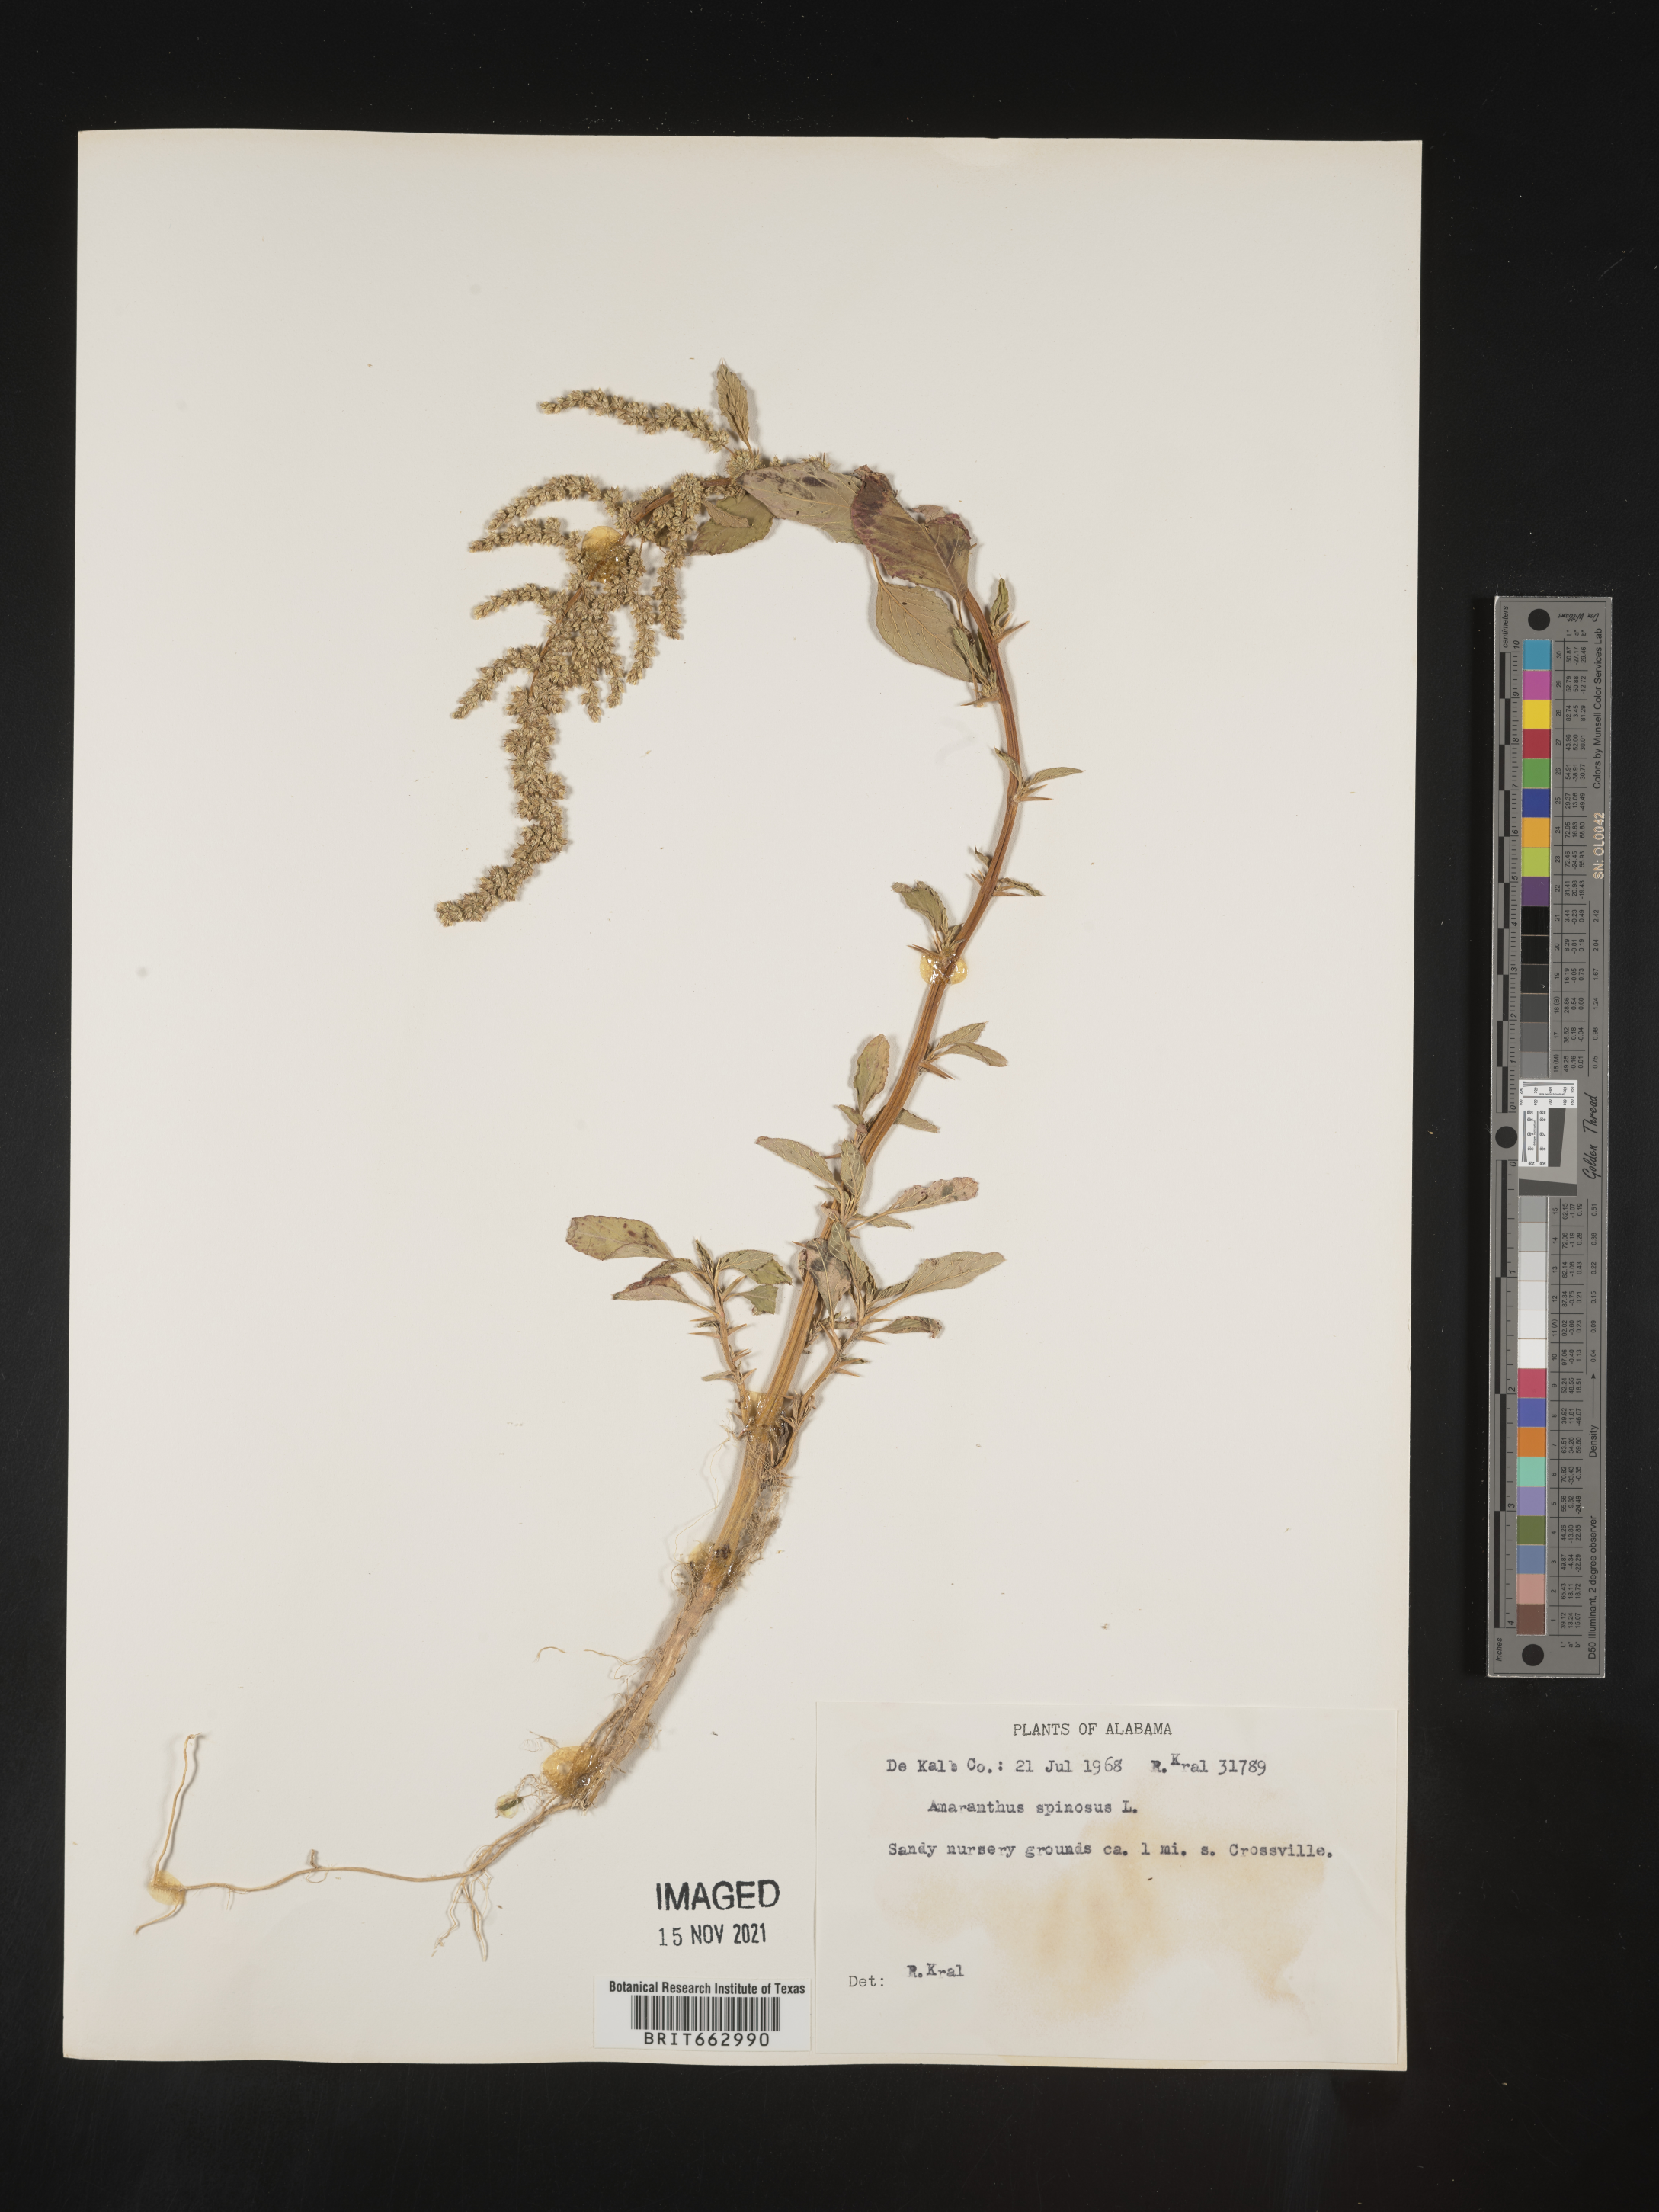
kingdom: Plantae
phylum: Tracheophyta
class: Magnoliopsida
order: Caryophyllales
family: Amaranthaceae
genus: Amaranthus
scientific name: Amaranthus spinosus
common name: Spiny amaranth
